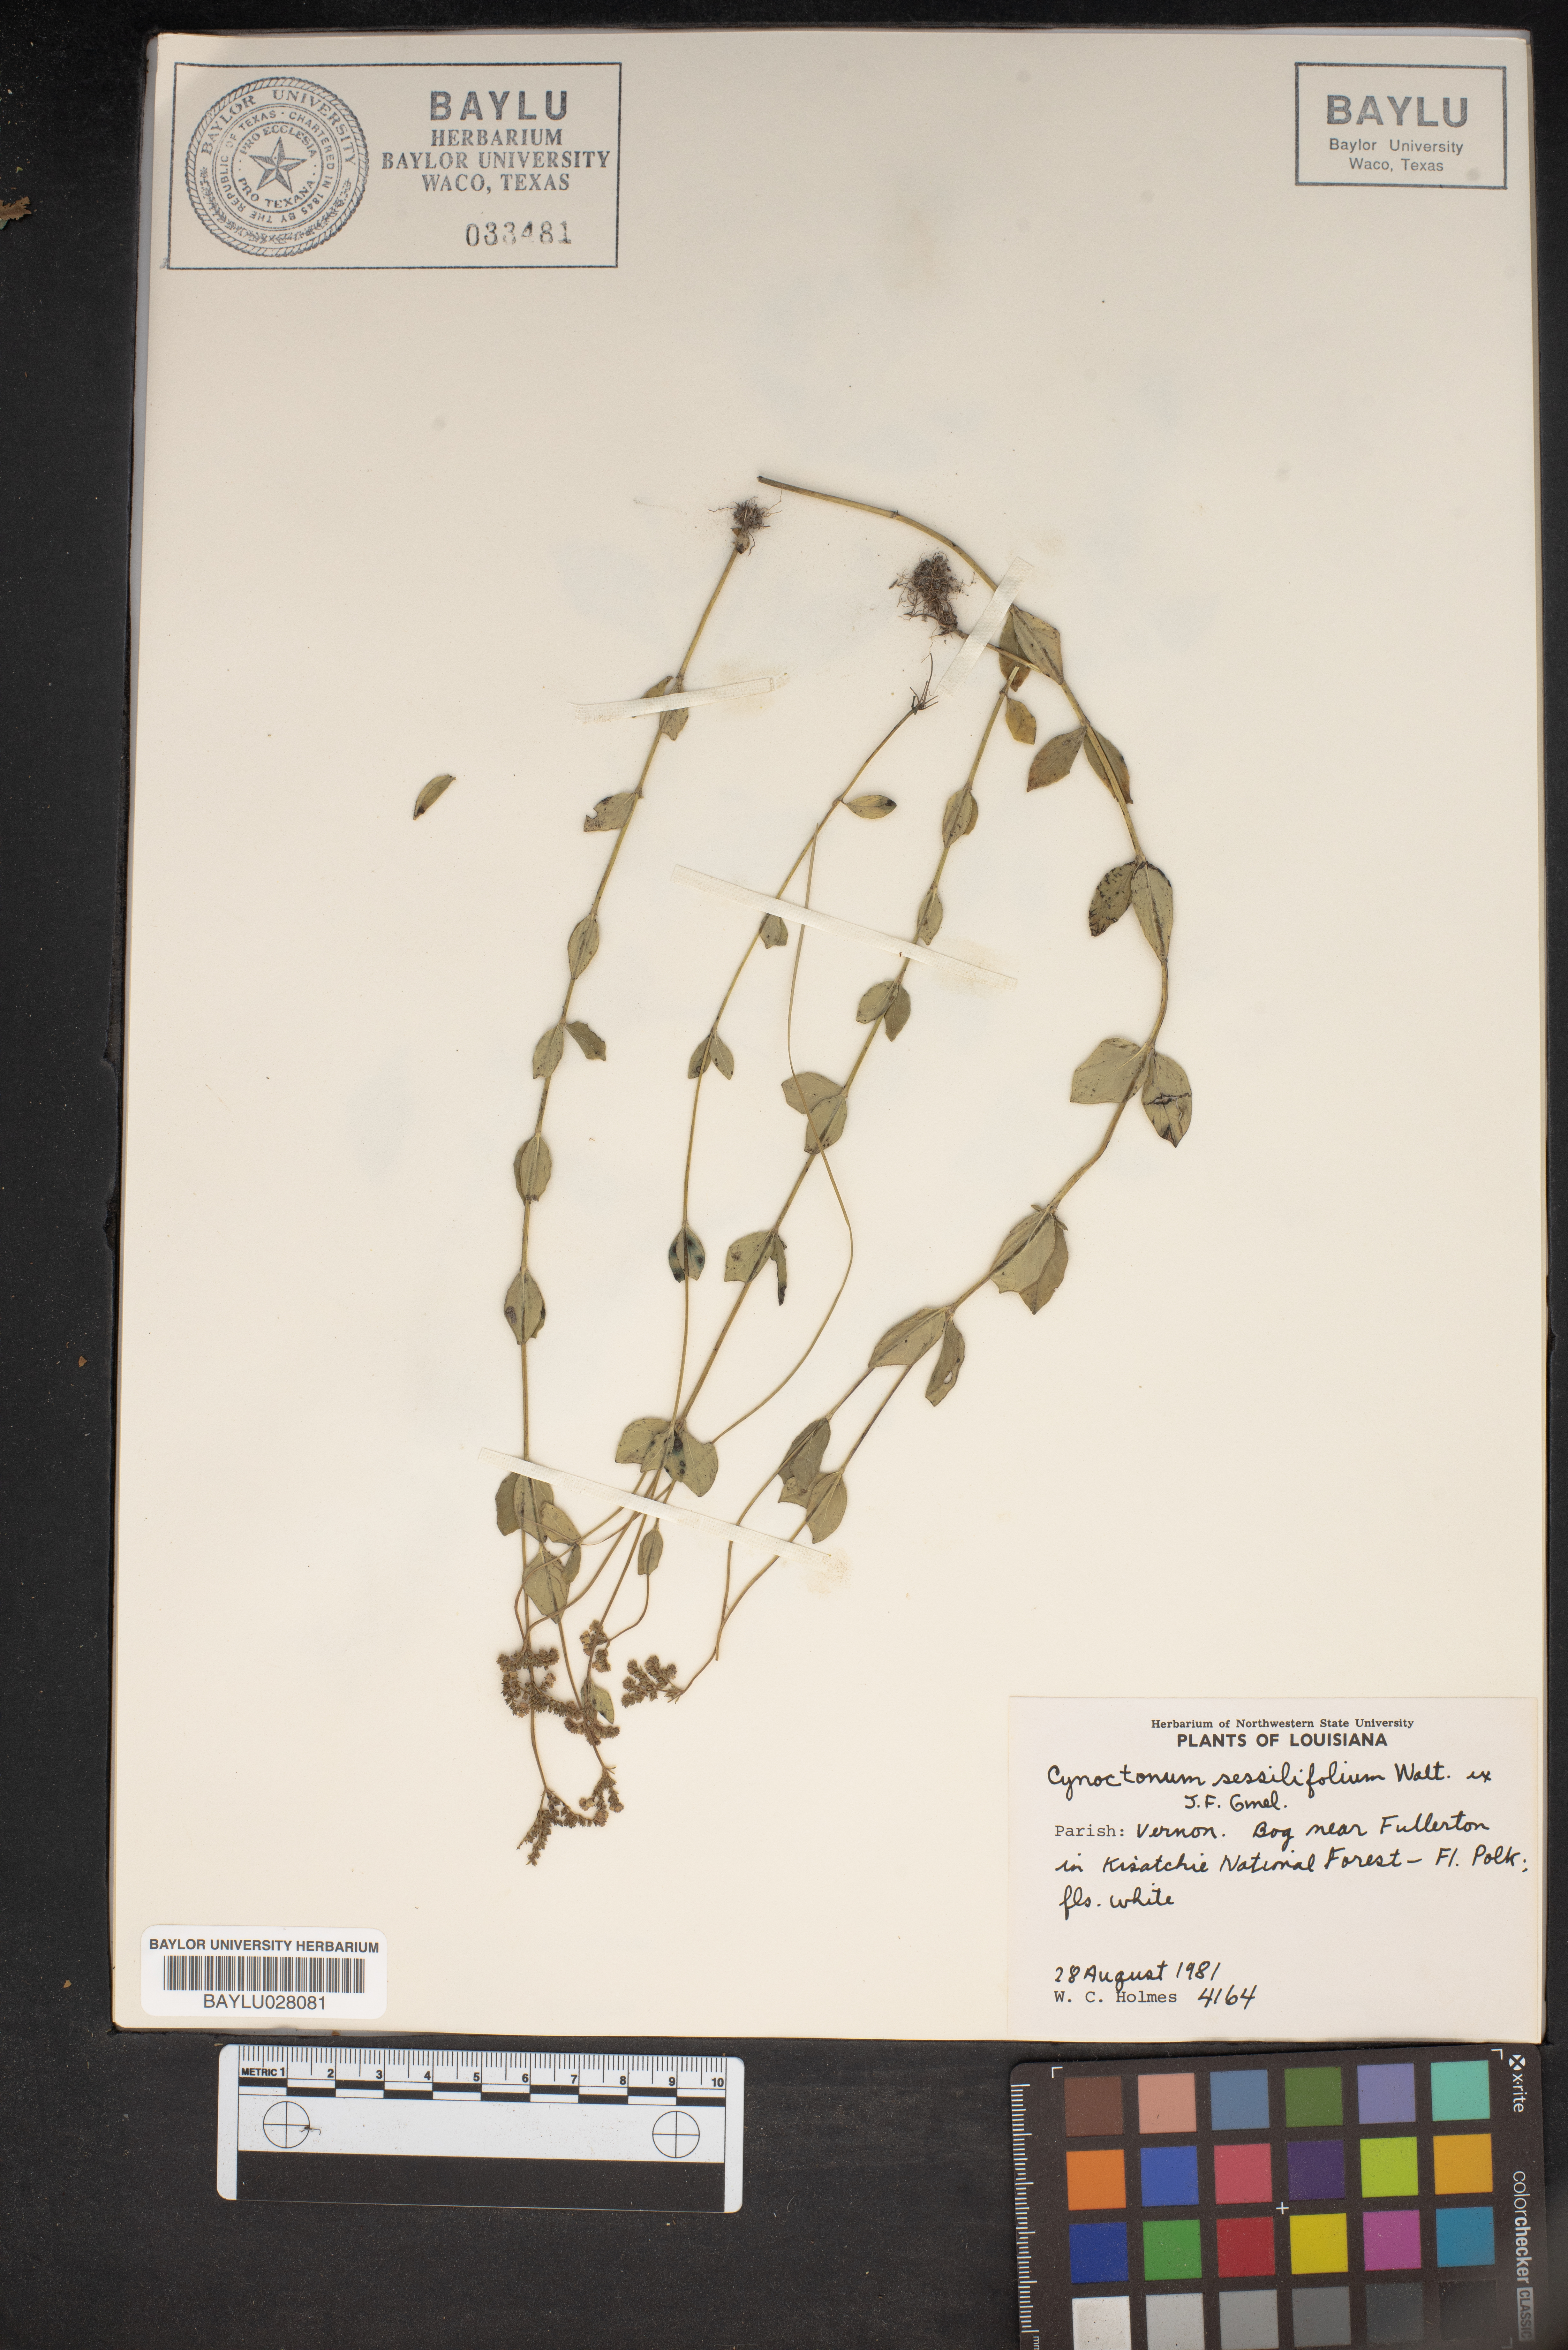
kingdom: Plantae
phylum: Tracheophyta
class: Magnoliopsida
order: Gentianales
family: Loganiaceae
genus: Mitreola
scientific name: Mitreola sessilifolia
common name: Swamp hornpod
